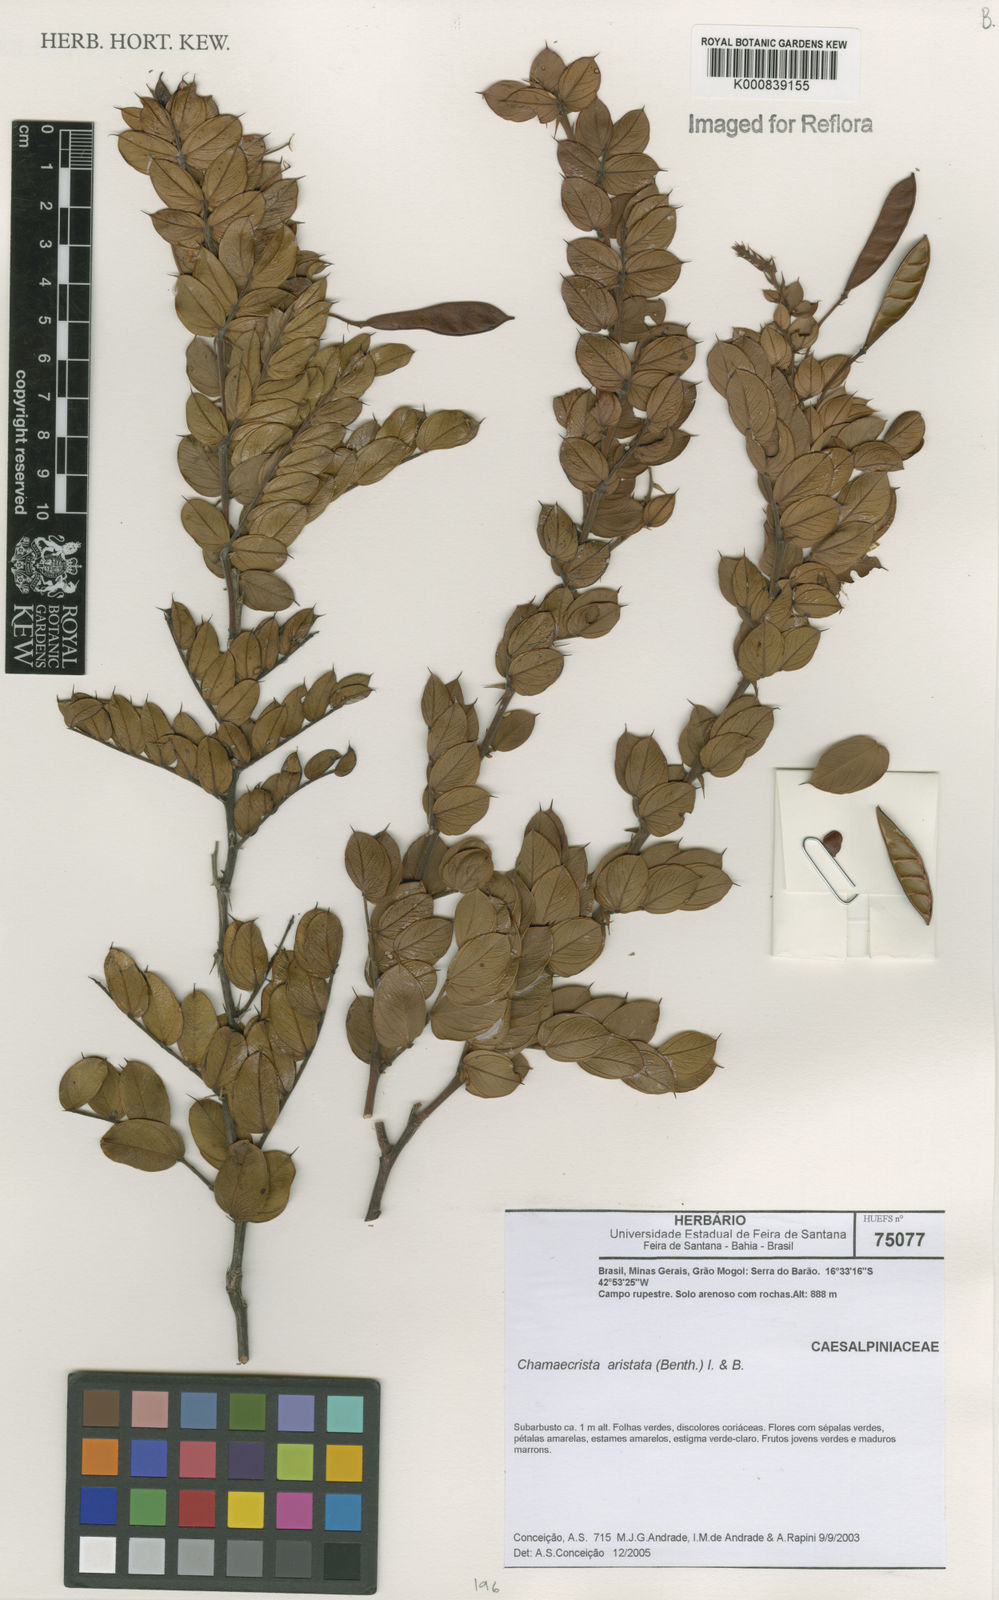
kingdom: Plantae
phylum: Tracheophyta
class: Magnoliopsida
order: Fabales
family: Fabaceae
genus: Chamaecrista
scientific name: Chamaecrista aristata
